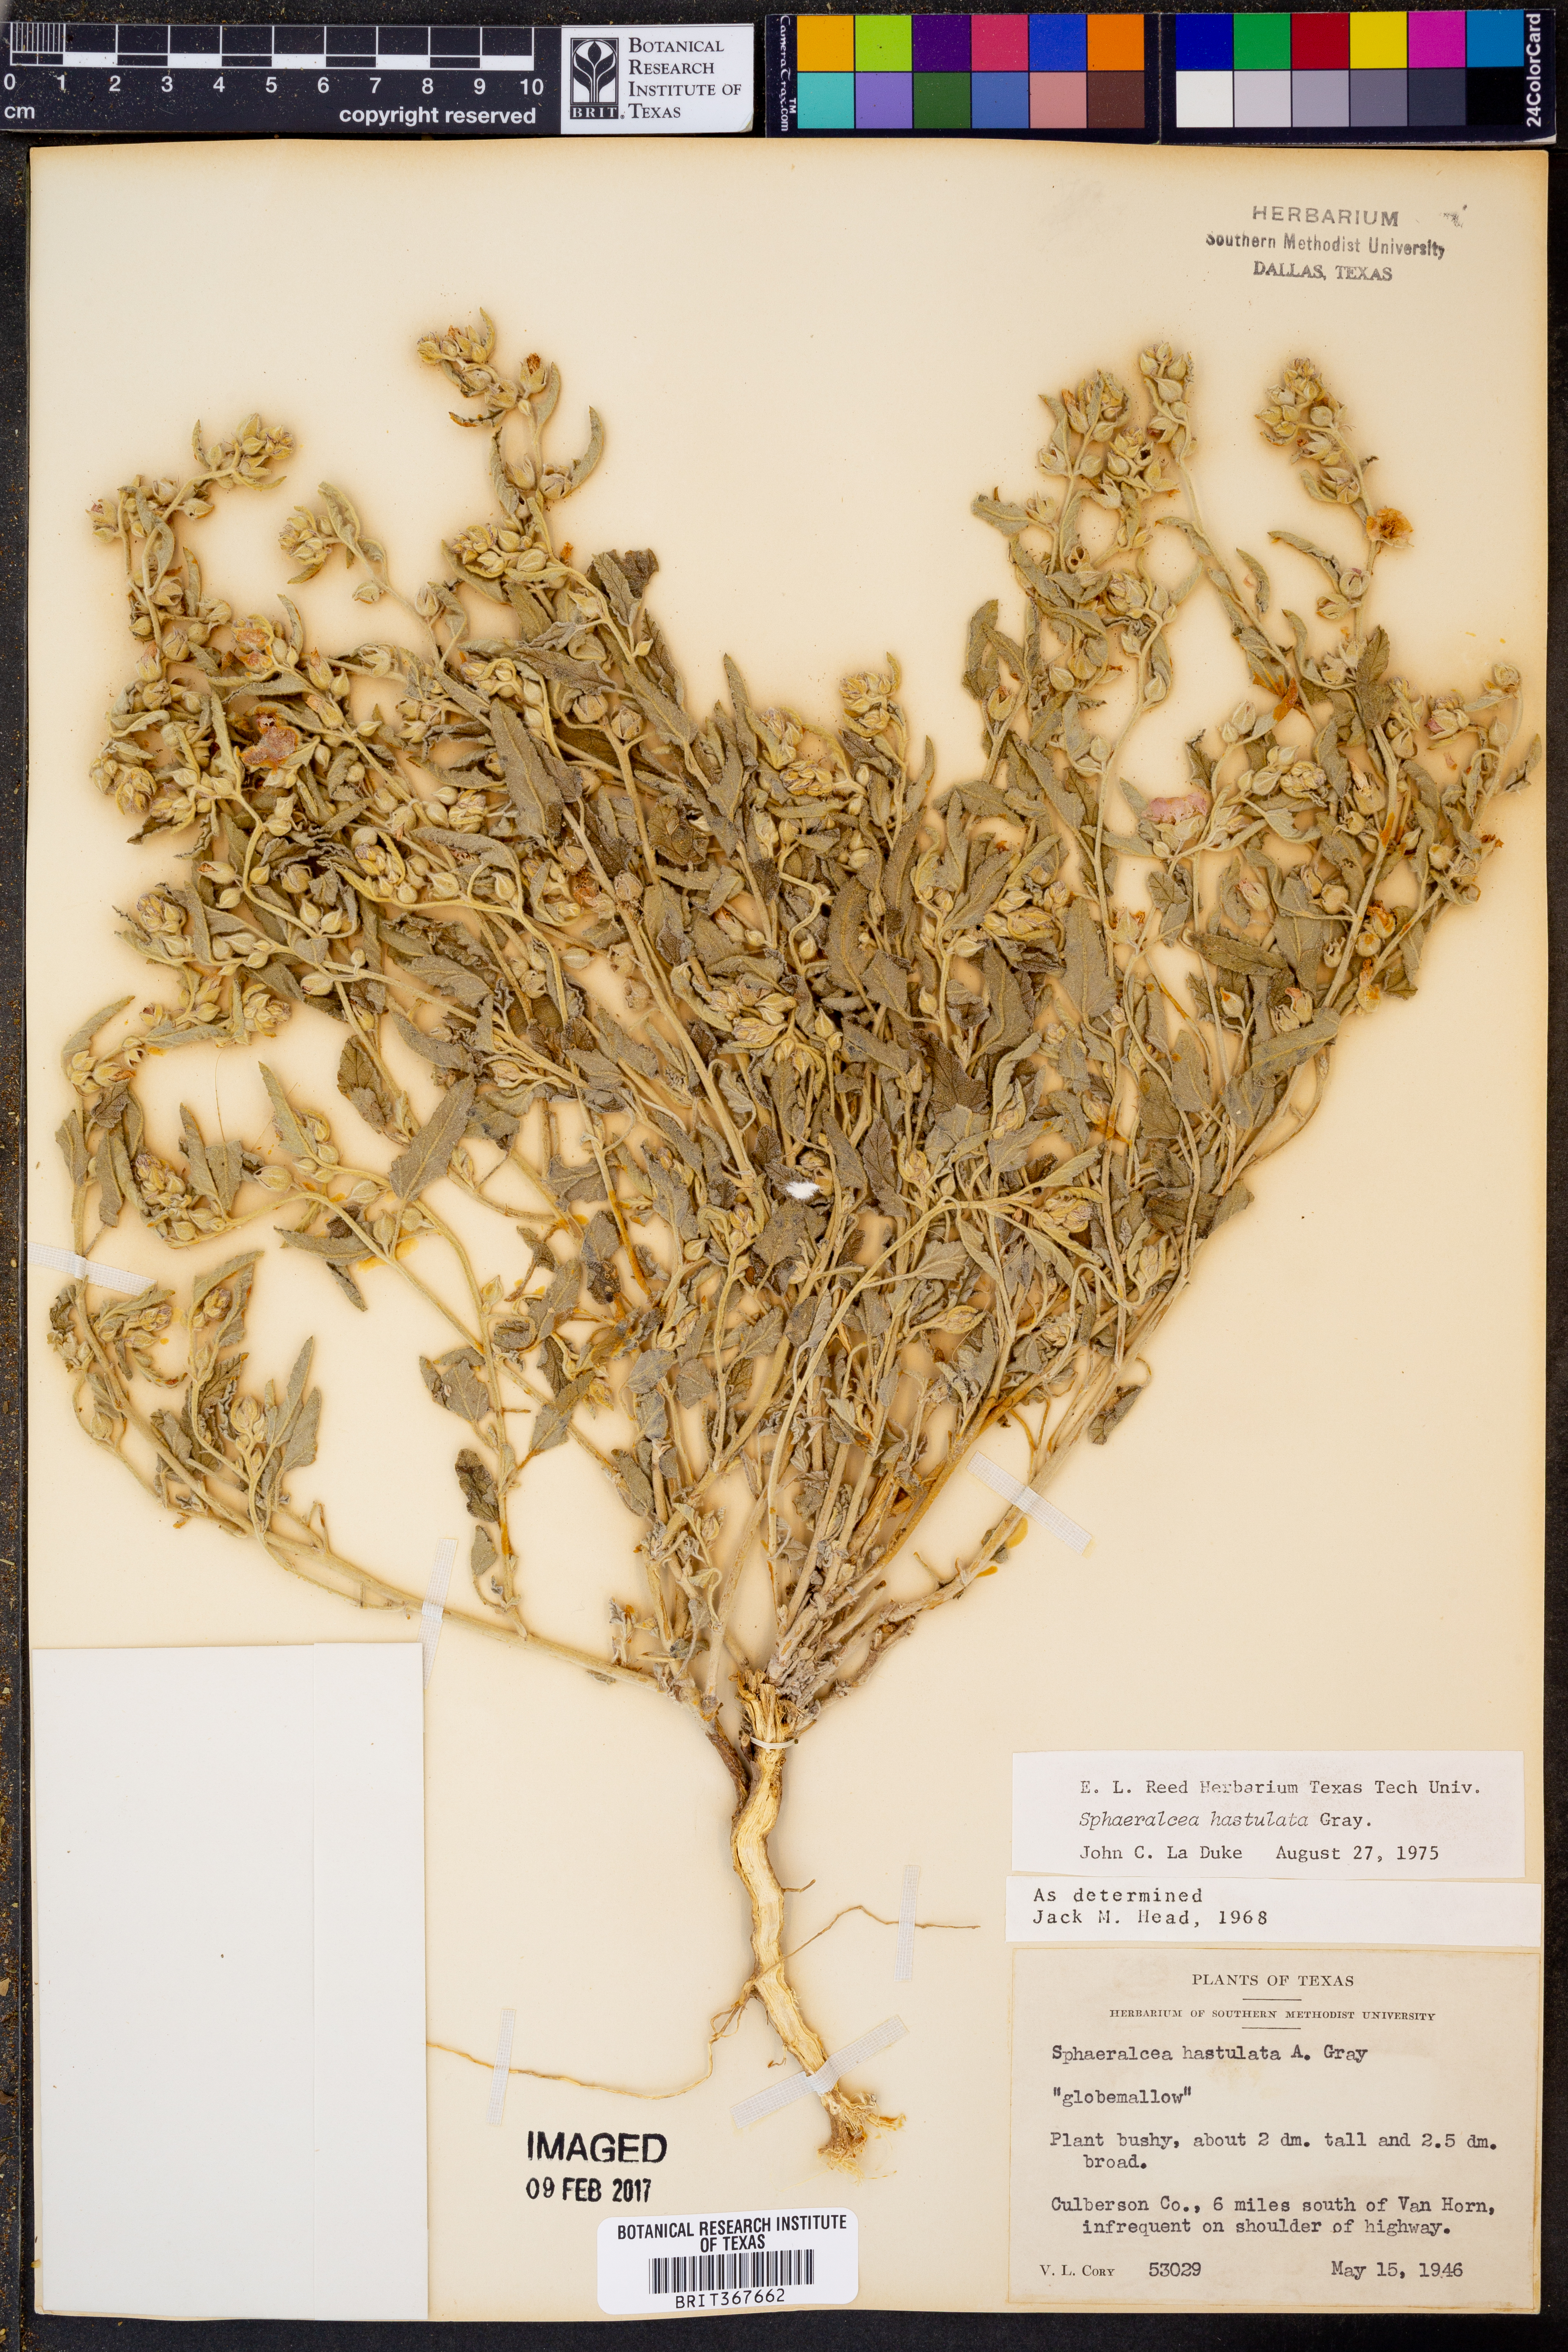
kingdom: Plantae
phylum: Tracheophyta
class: Magnoliopsida
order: Malvales
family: Malvaceae
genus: Sphaeralcea
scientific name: Sphaeralcea hastulata
